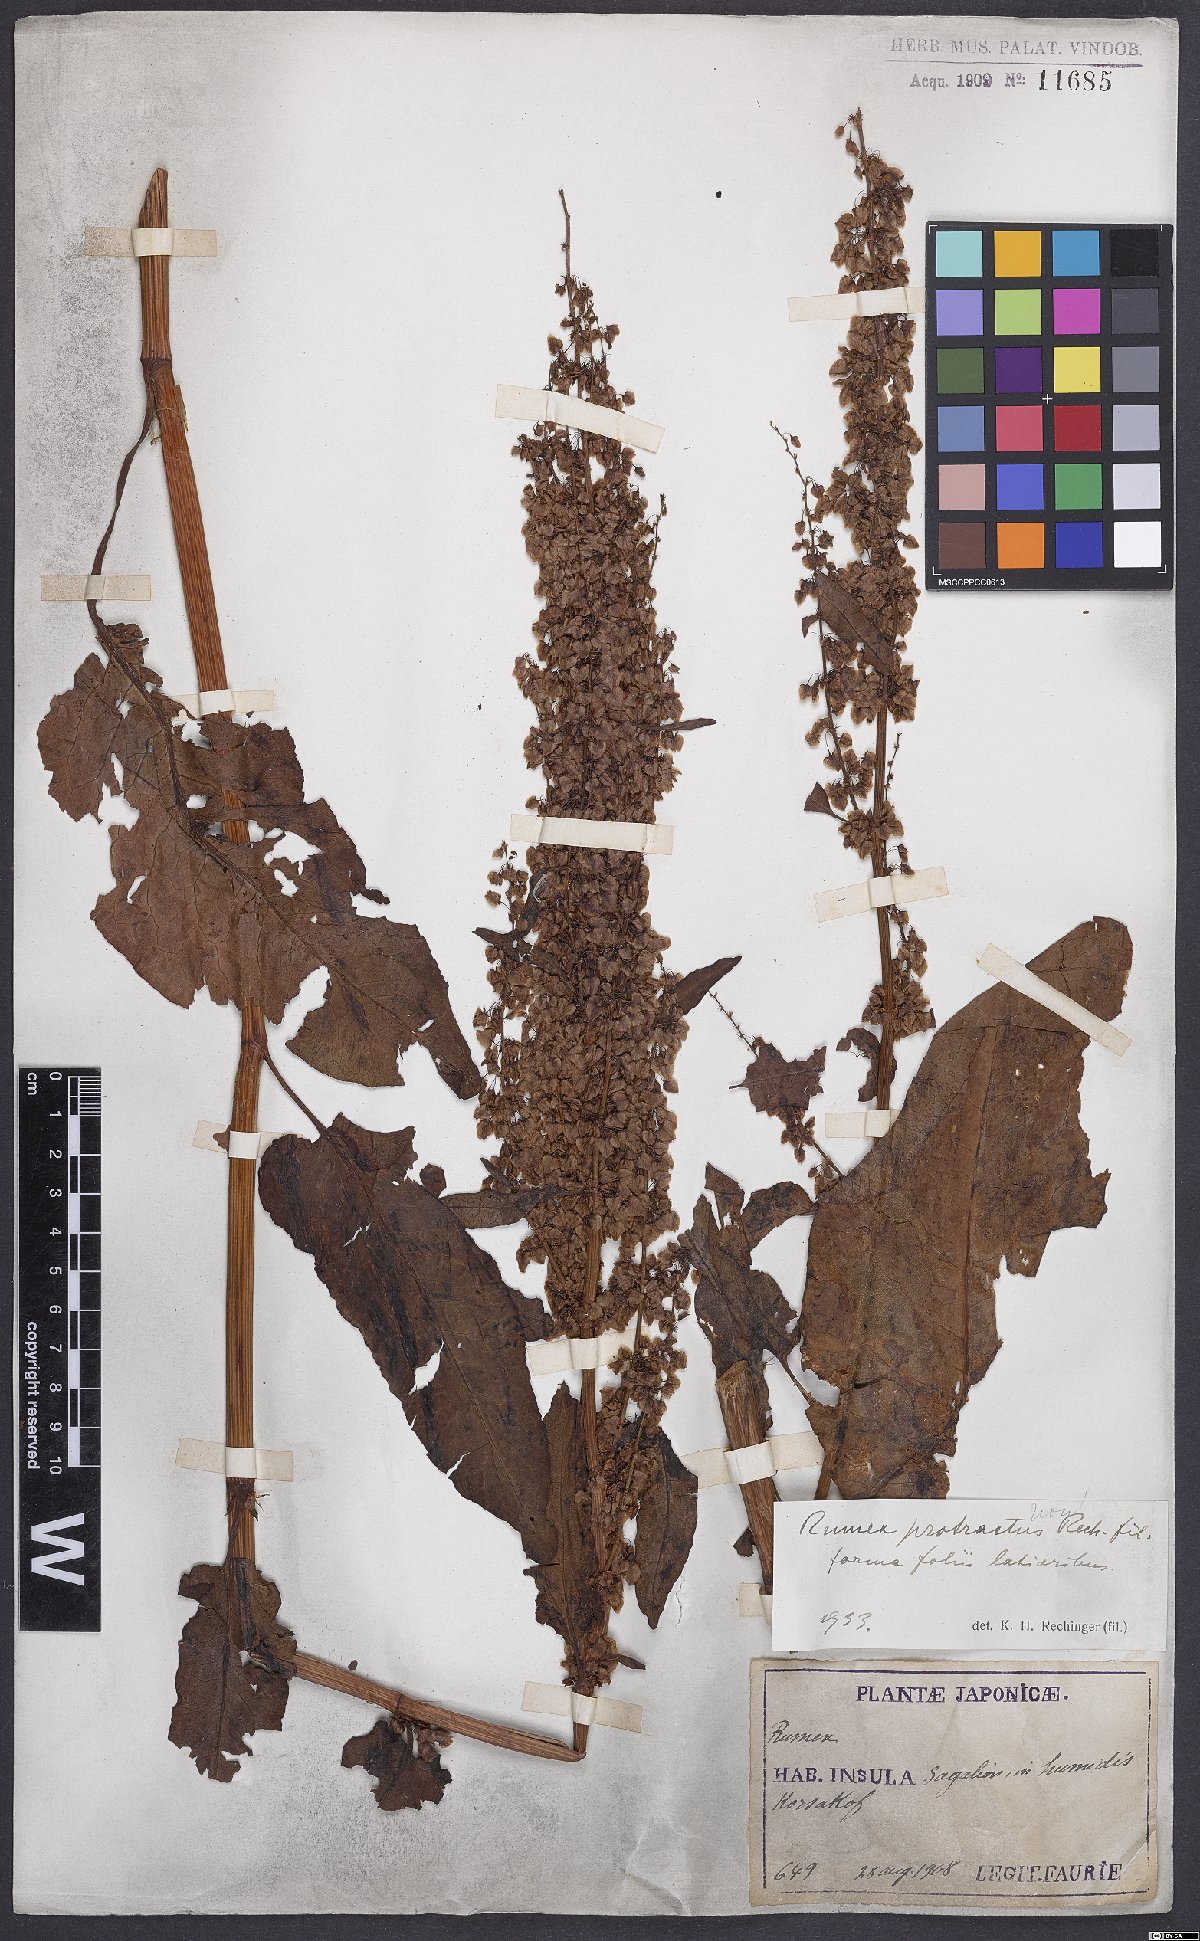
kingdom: Plantae
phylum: Tracheophyta
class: Magnoliopsida
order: Caryophyllales
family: Polygonaceae
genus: Rumex
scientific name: Rumex aquaticus
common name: Scottish dock
